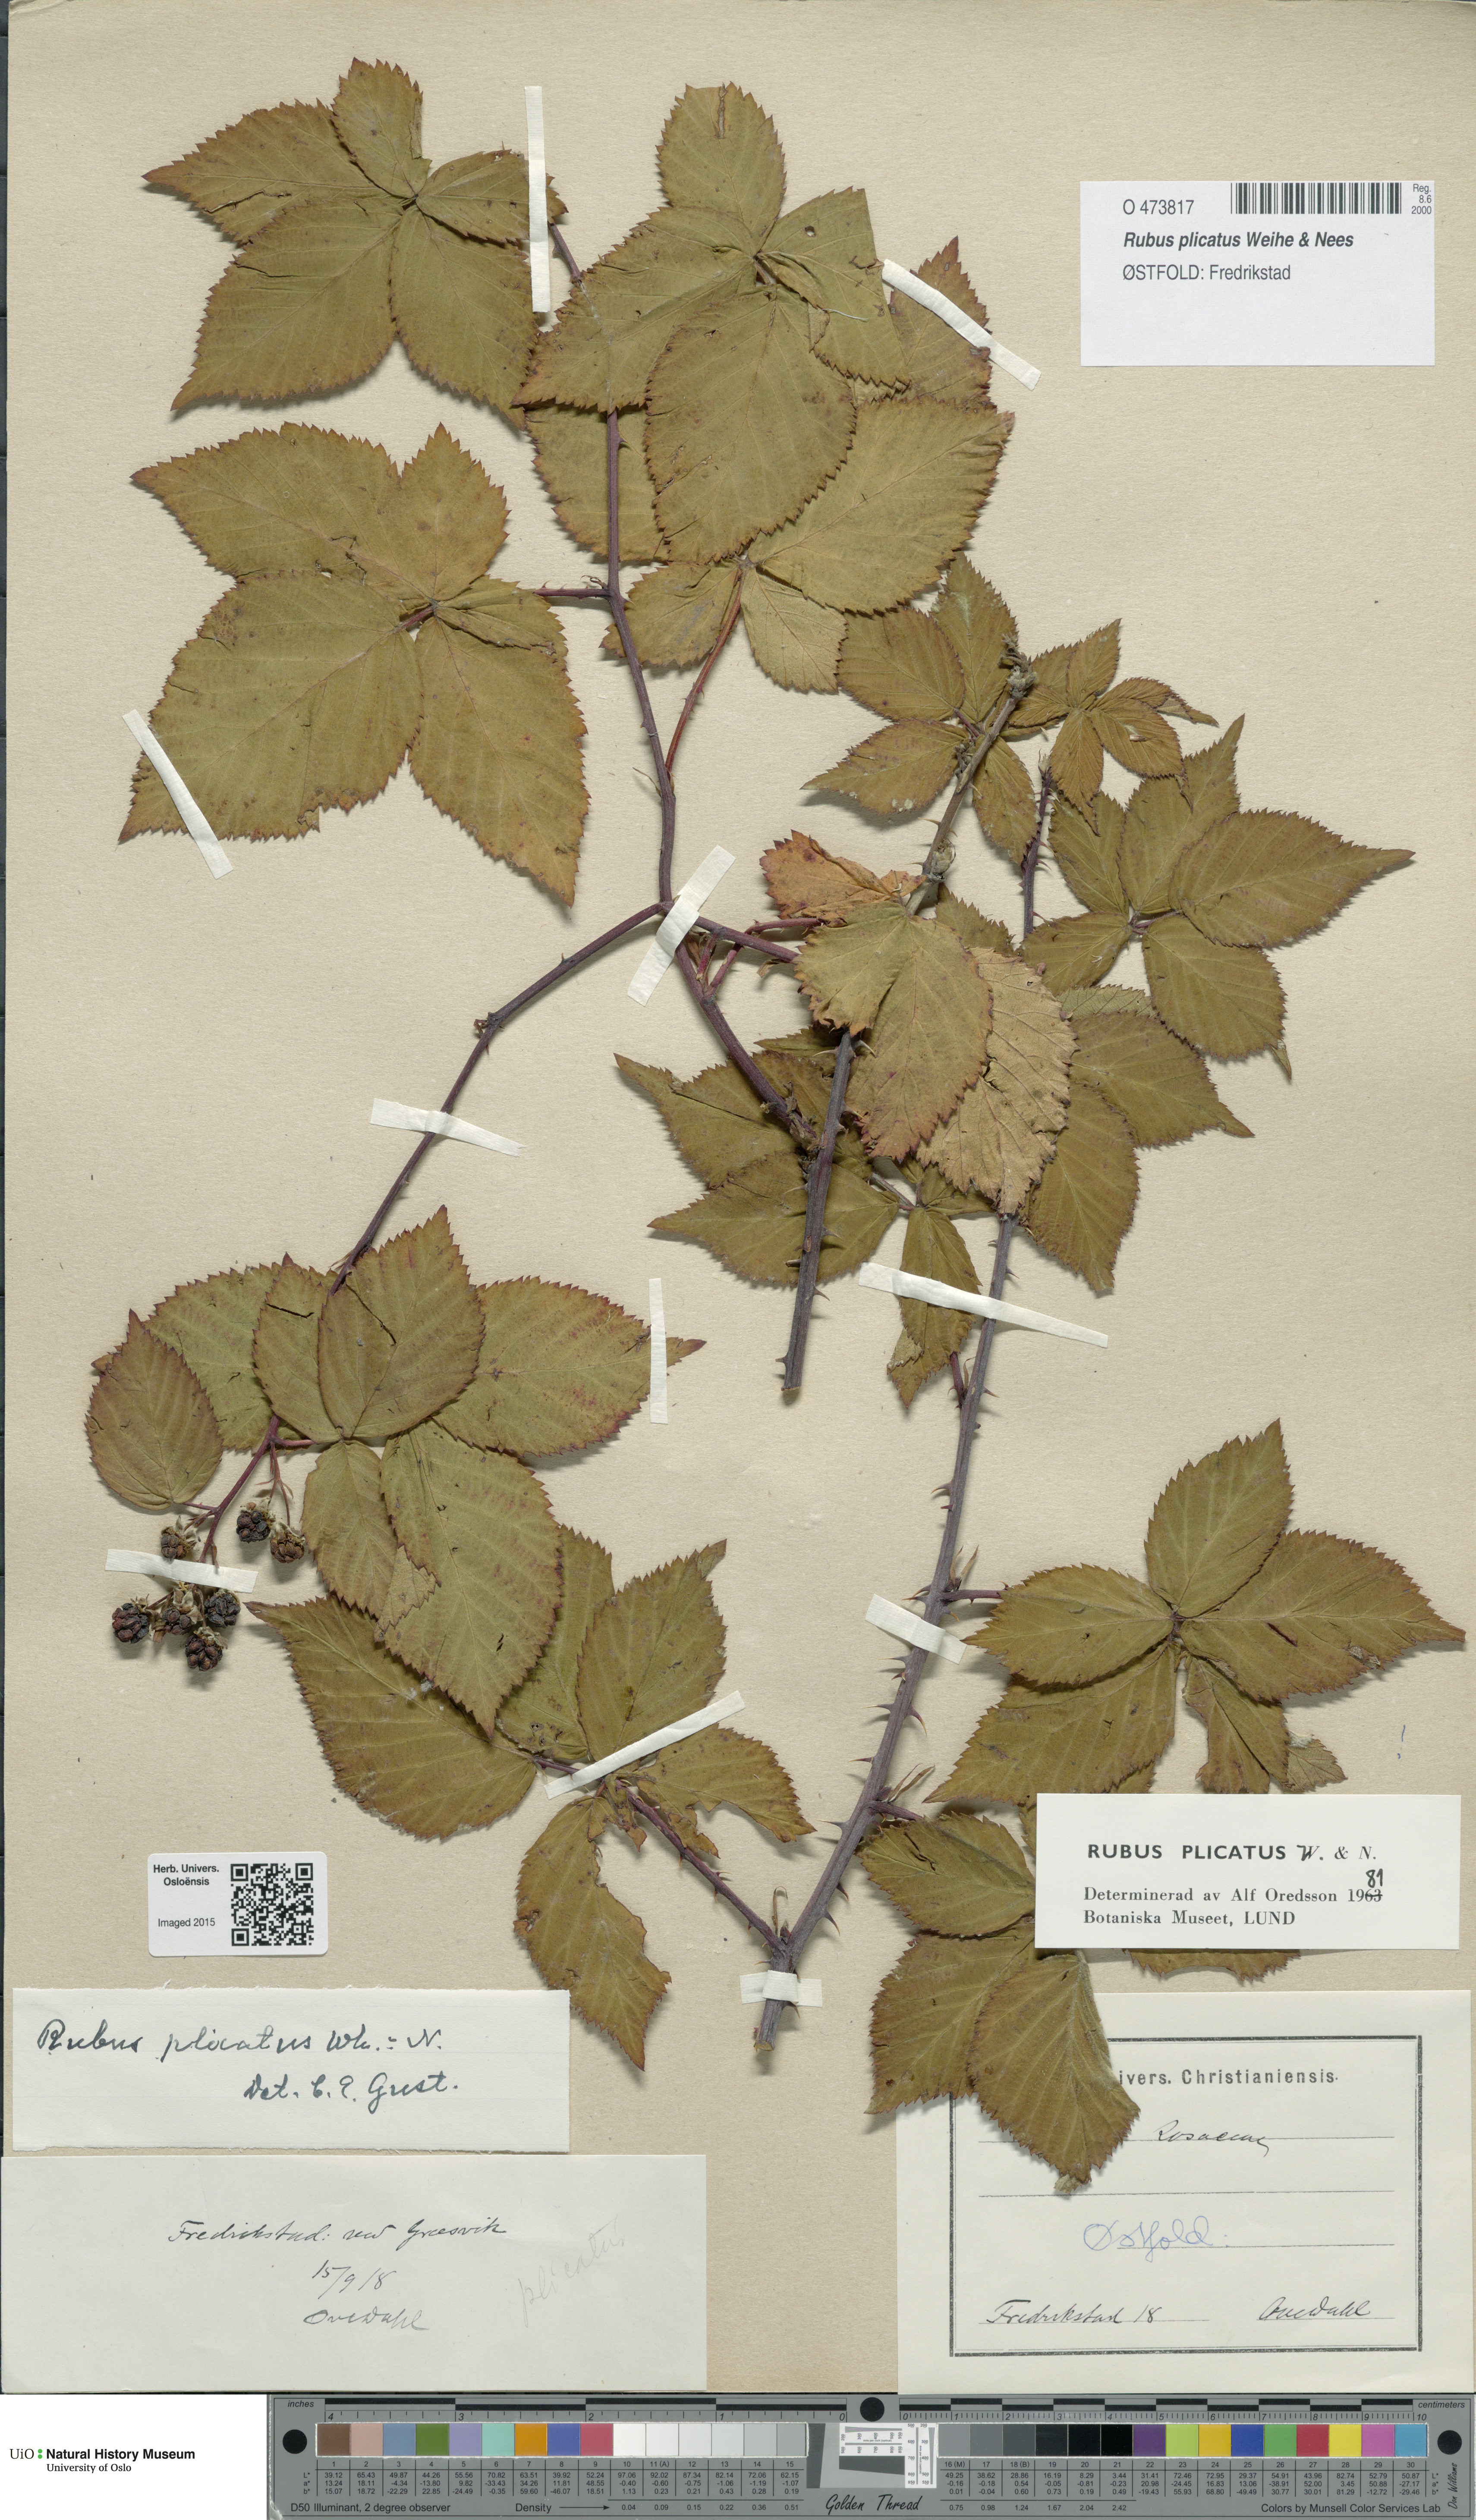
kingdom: Plantae
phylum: Tracheophyta
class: Magnoliopsida
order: Rosales
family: Rosaceae
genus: Rubus
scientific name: Rubus fruticosus
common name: Blackberry, bramble
